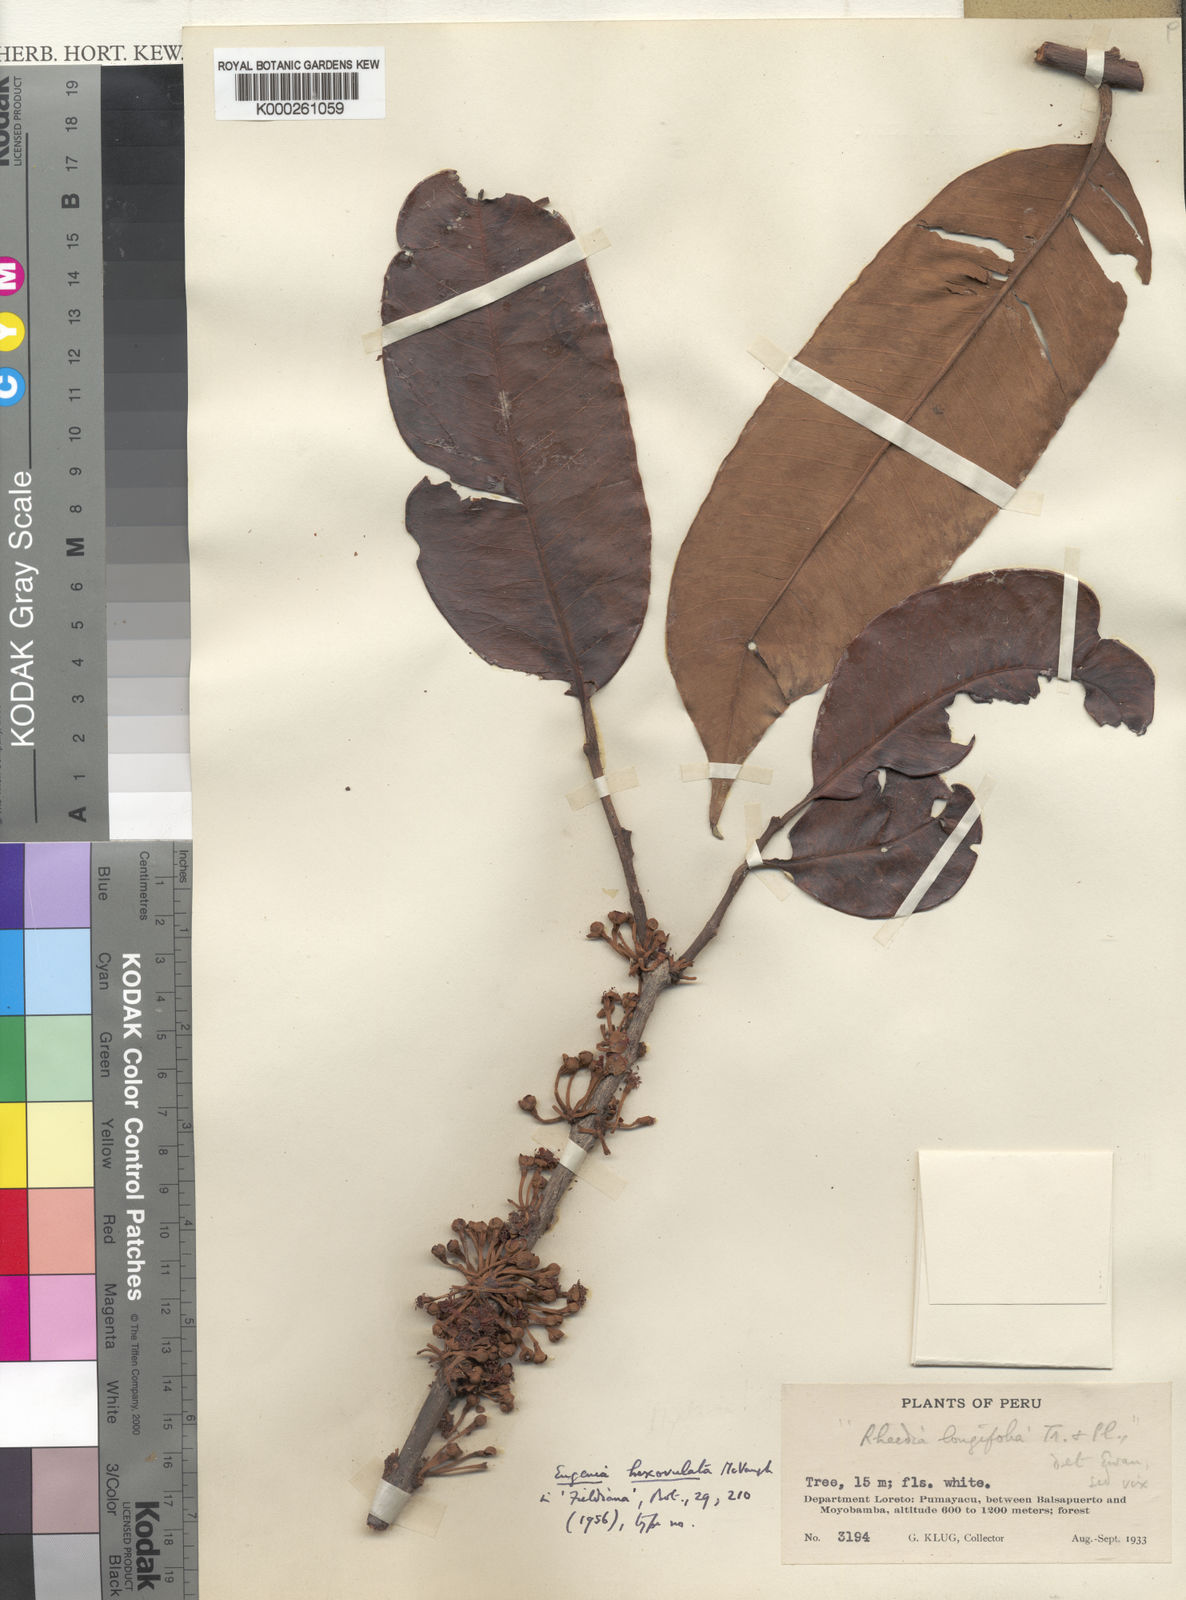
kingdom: Plantae
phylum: Tracheophyta
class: Magnoliopsida
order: Myrtales
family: Myrtaceae
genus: Eugenia
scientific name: Eugenia hexovulata
